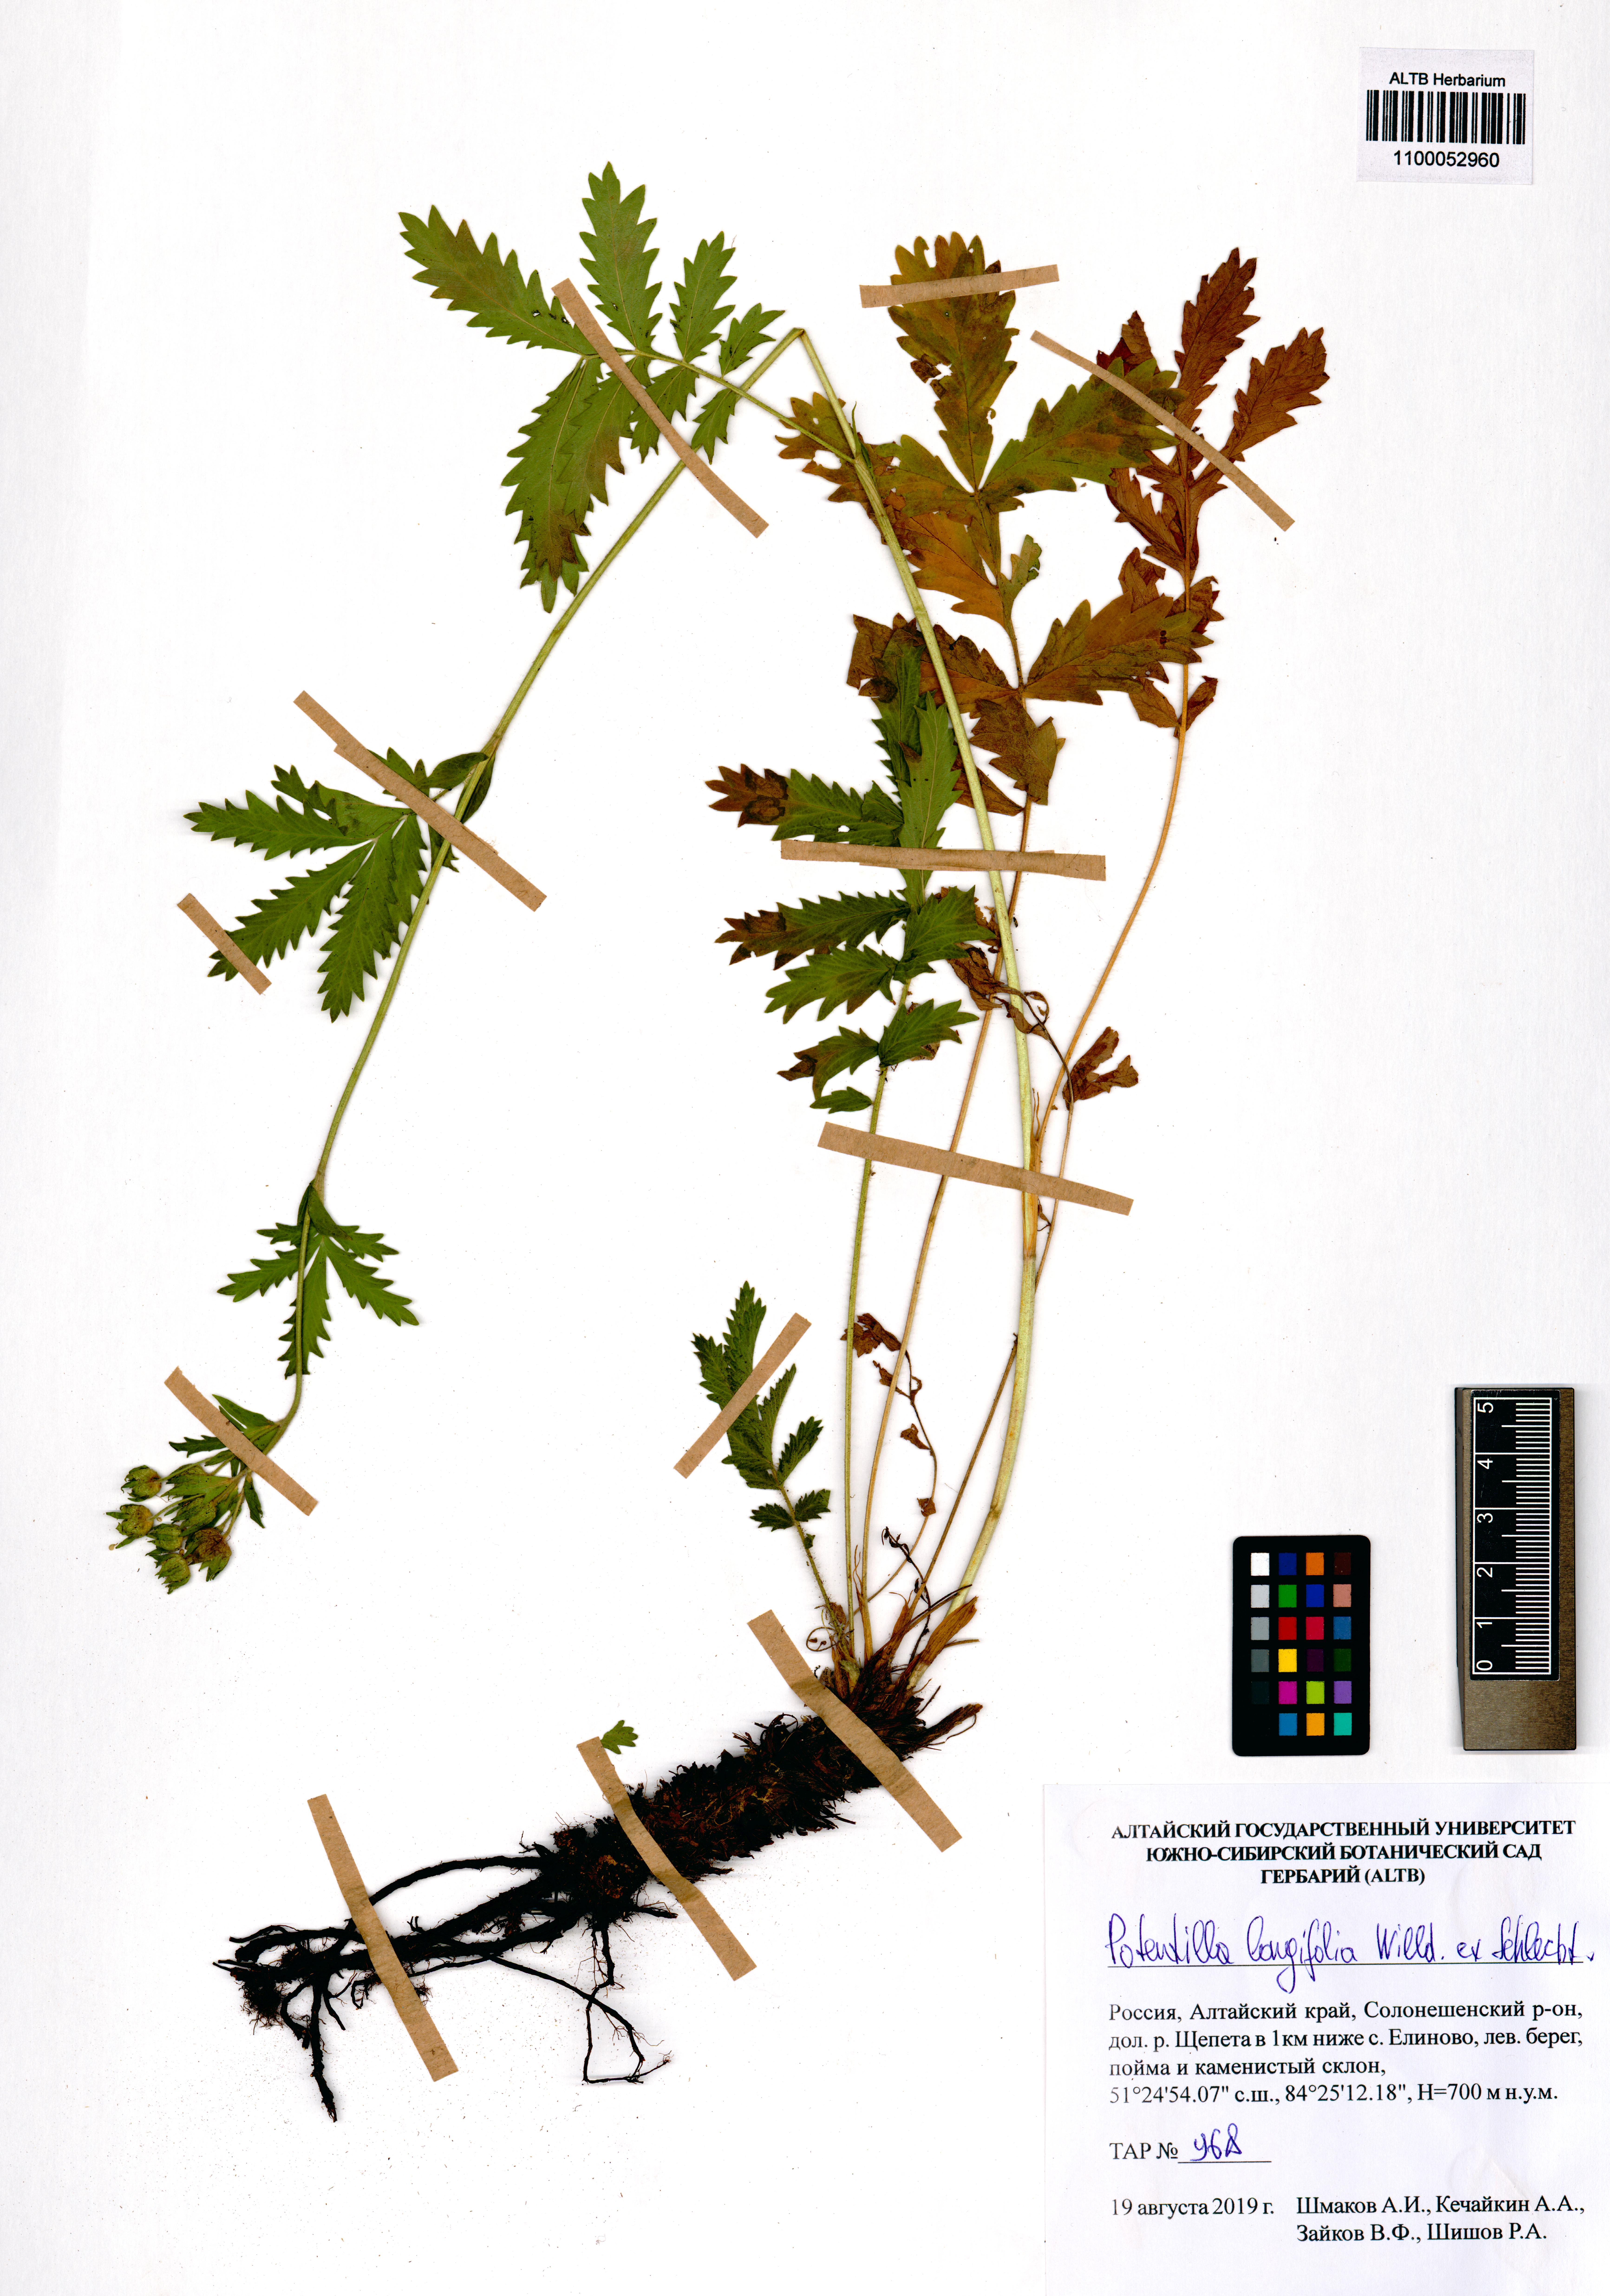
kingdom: Plantae
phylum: Tracheophyta
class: Magnoliopsida
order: Rosales
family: Rosaceae
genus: Potentilla
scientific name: Potentilla longifolia
